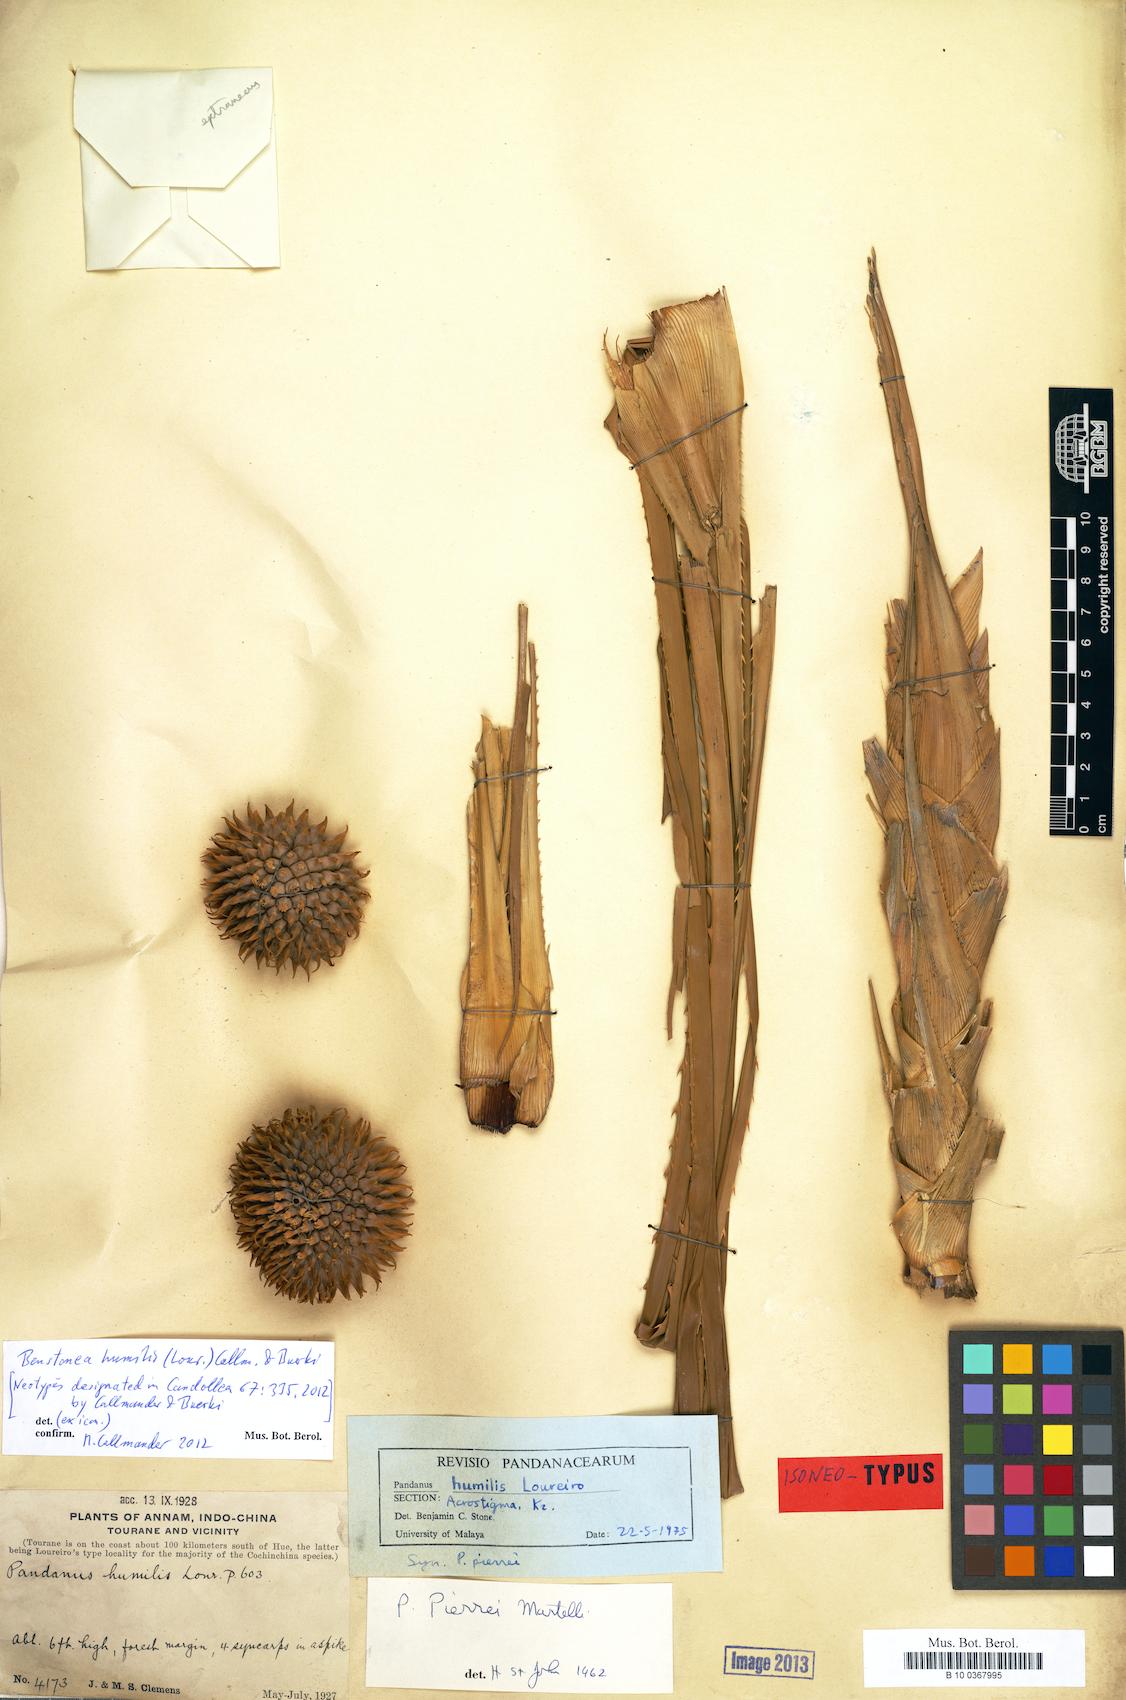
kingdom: Plantae
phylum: Tracheophyta
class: Liliopsida
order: Pandanales
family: Pandanaceae
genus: Benstonea
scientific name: Benstonea humilis
